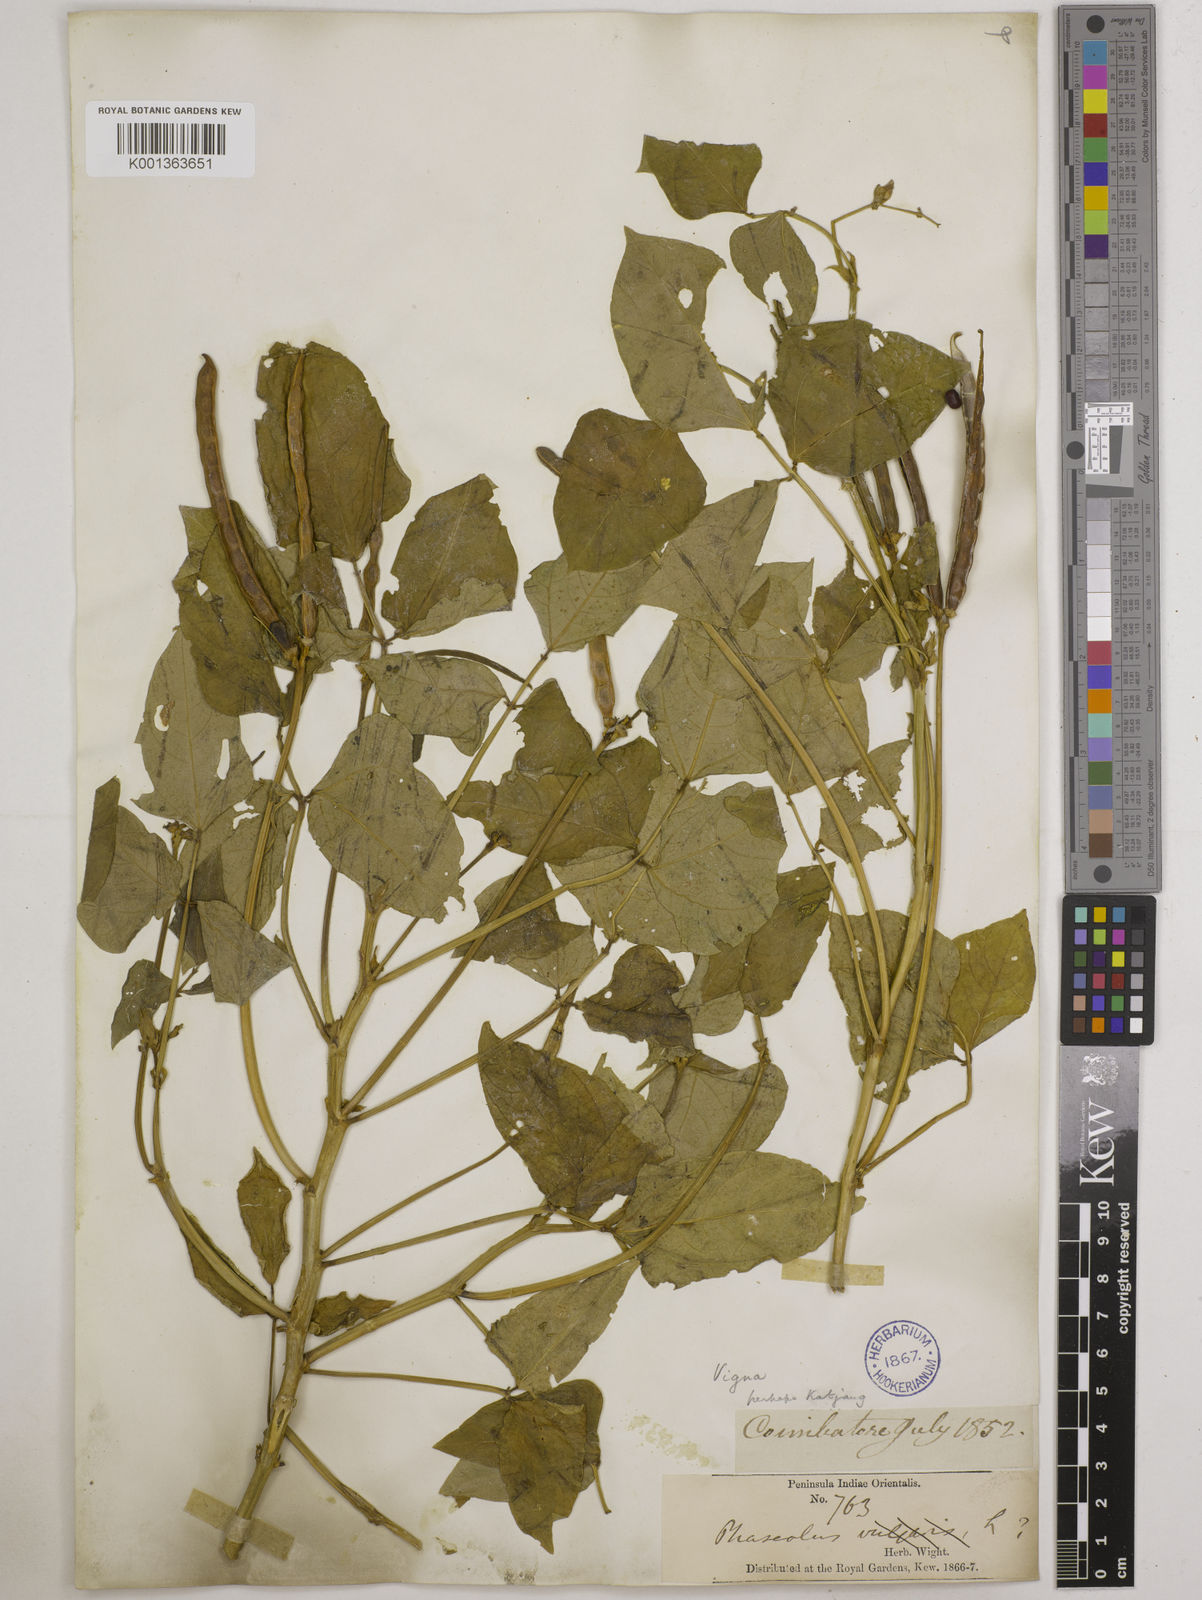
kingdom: Plantae
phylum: Tracheophyta
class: Magnoliopsida
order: Fabales
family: Fabaceae
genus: Vigna
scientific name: Vigna unguiculata
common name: Cowpea
